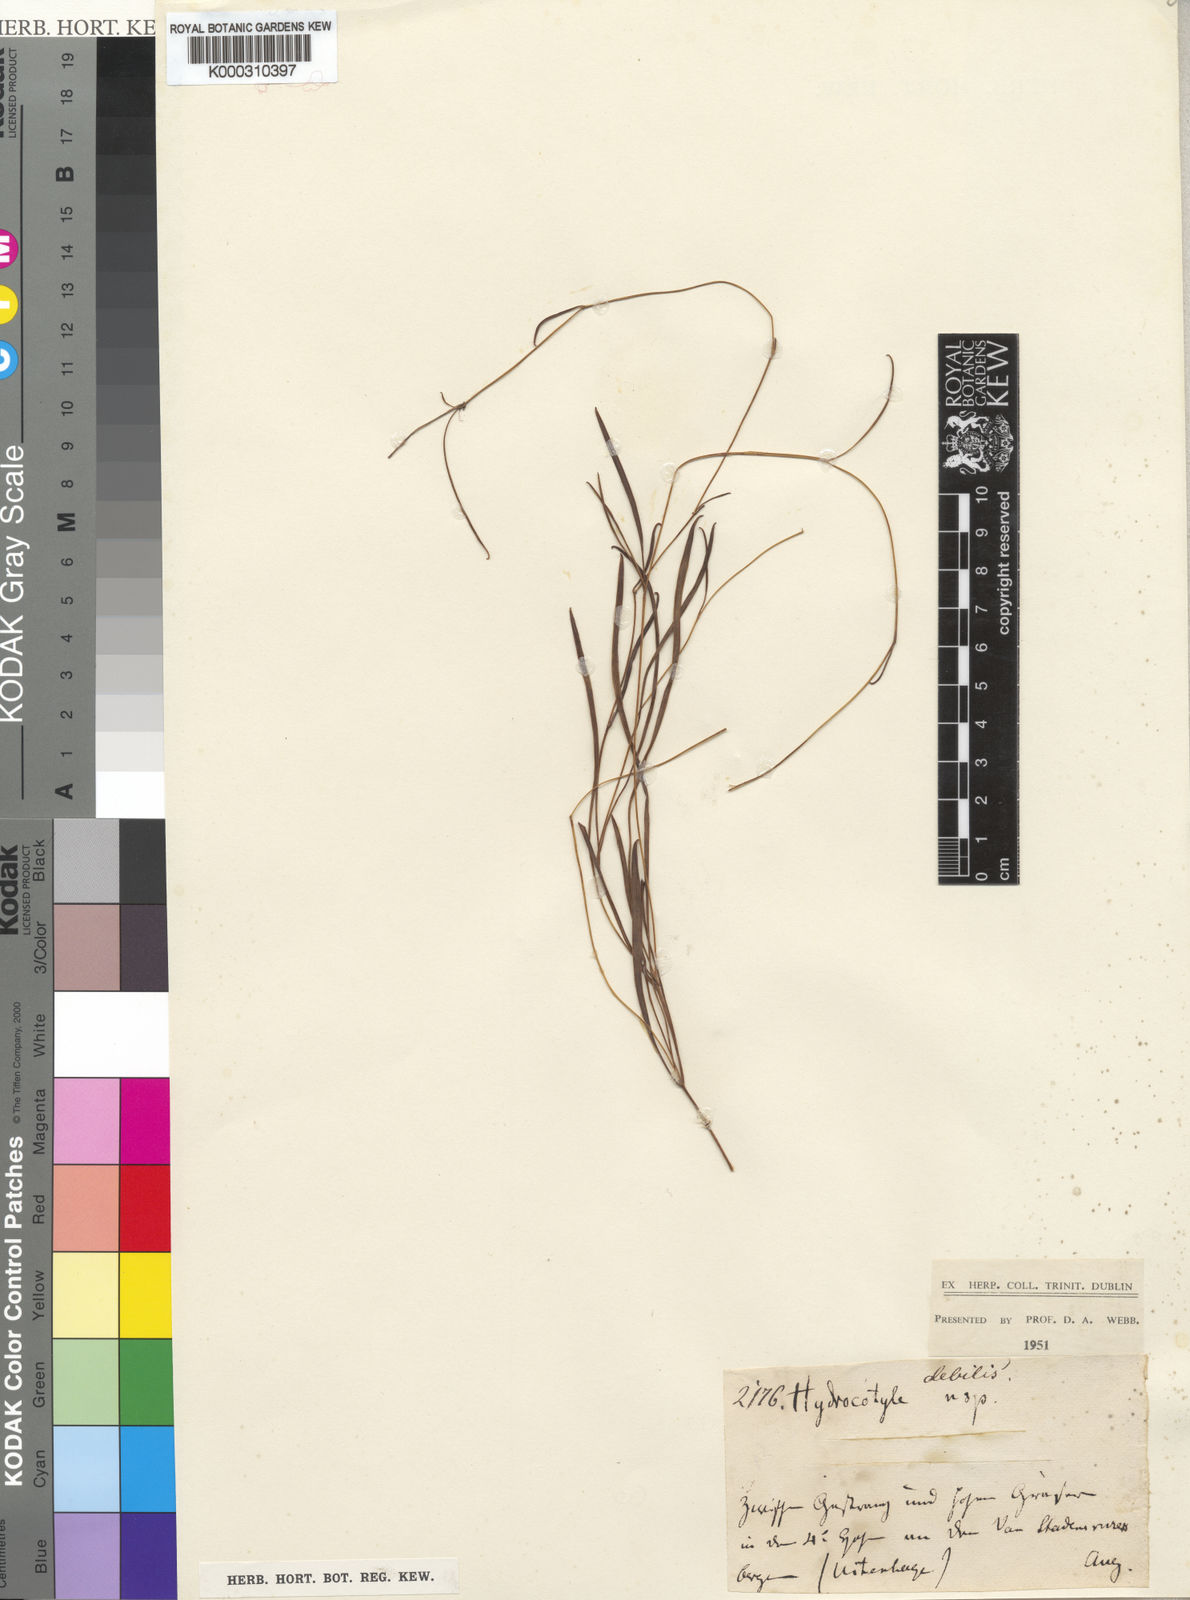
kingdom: Plantae
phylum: Tracheophyta
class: Magnoliopsida
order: Apiales
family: Apiaceae
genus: Centella
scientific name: Centella debilis
